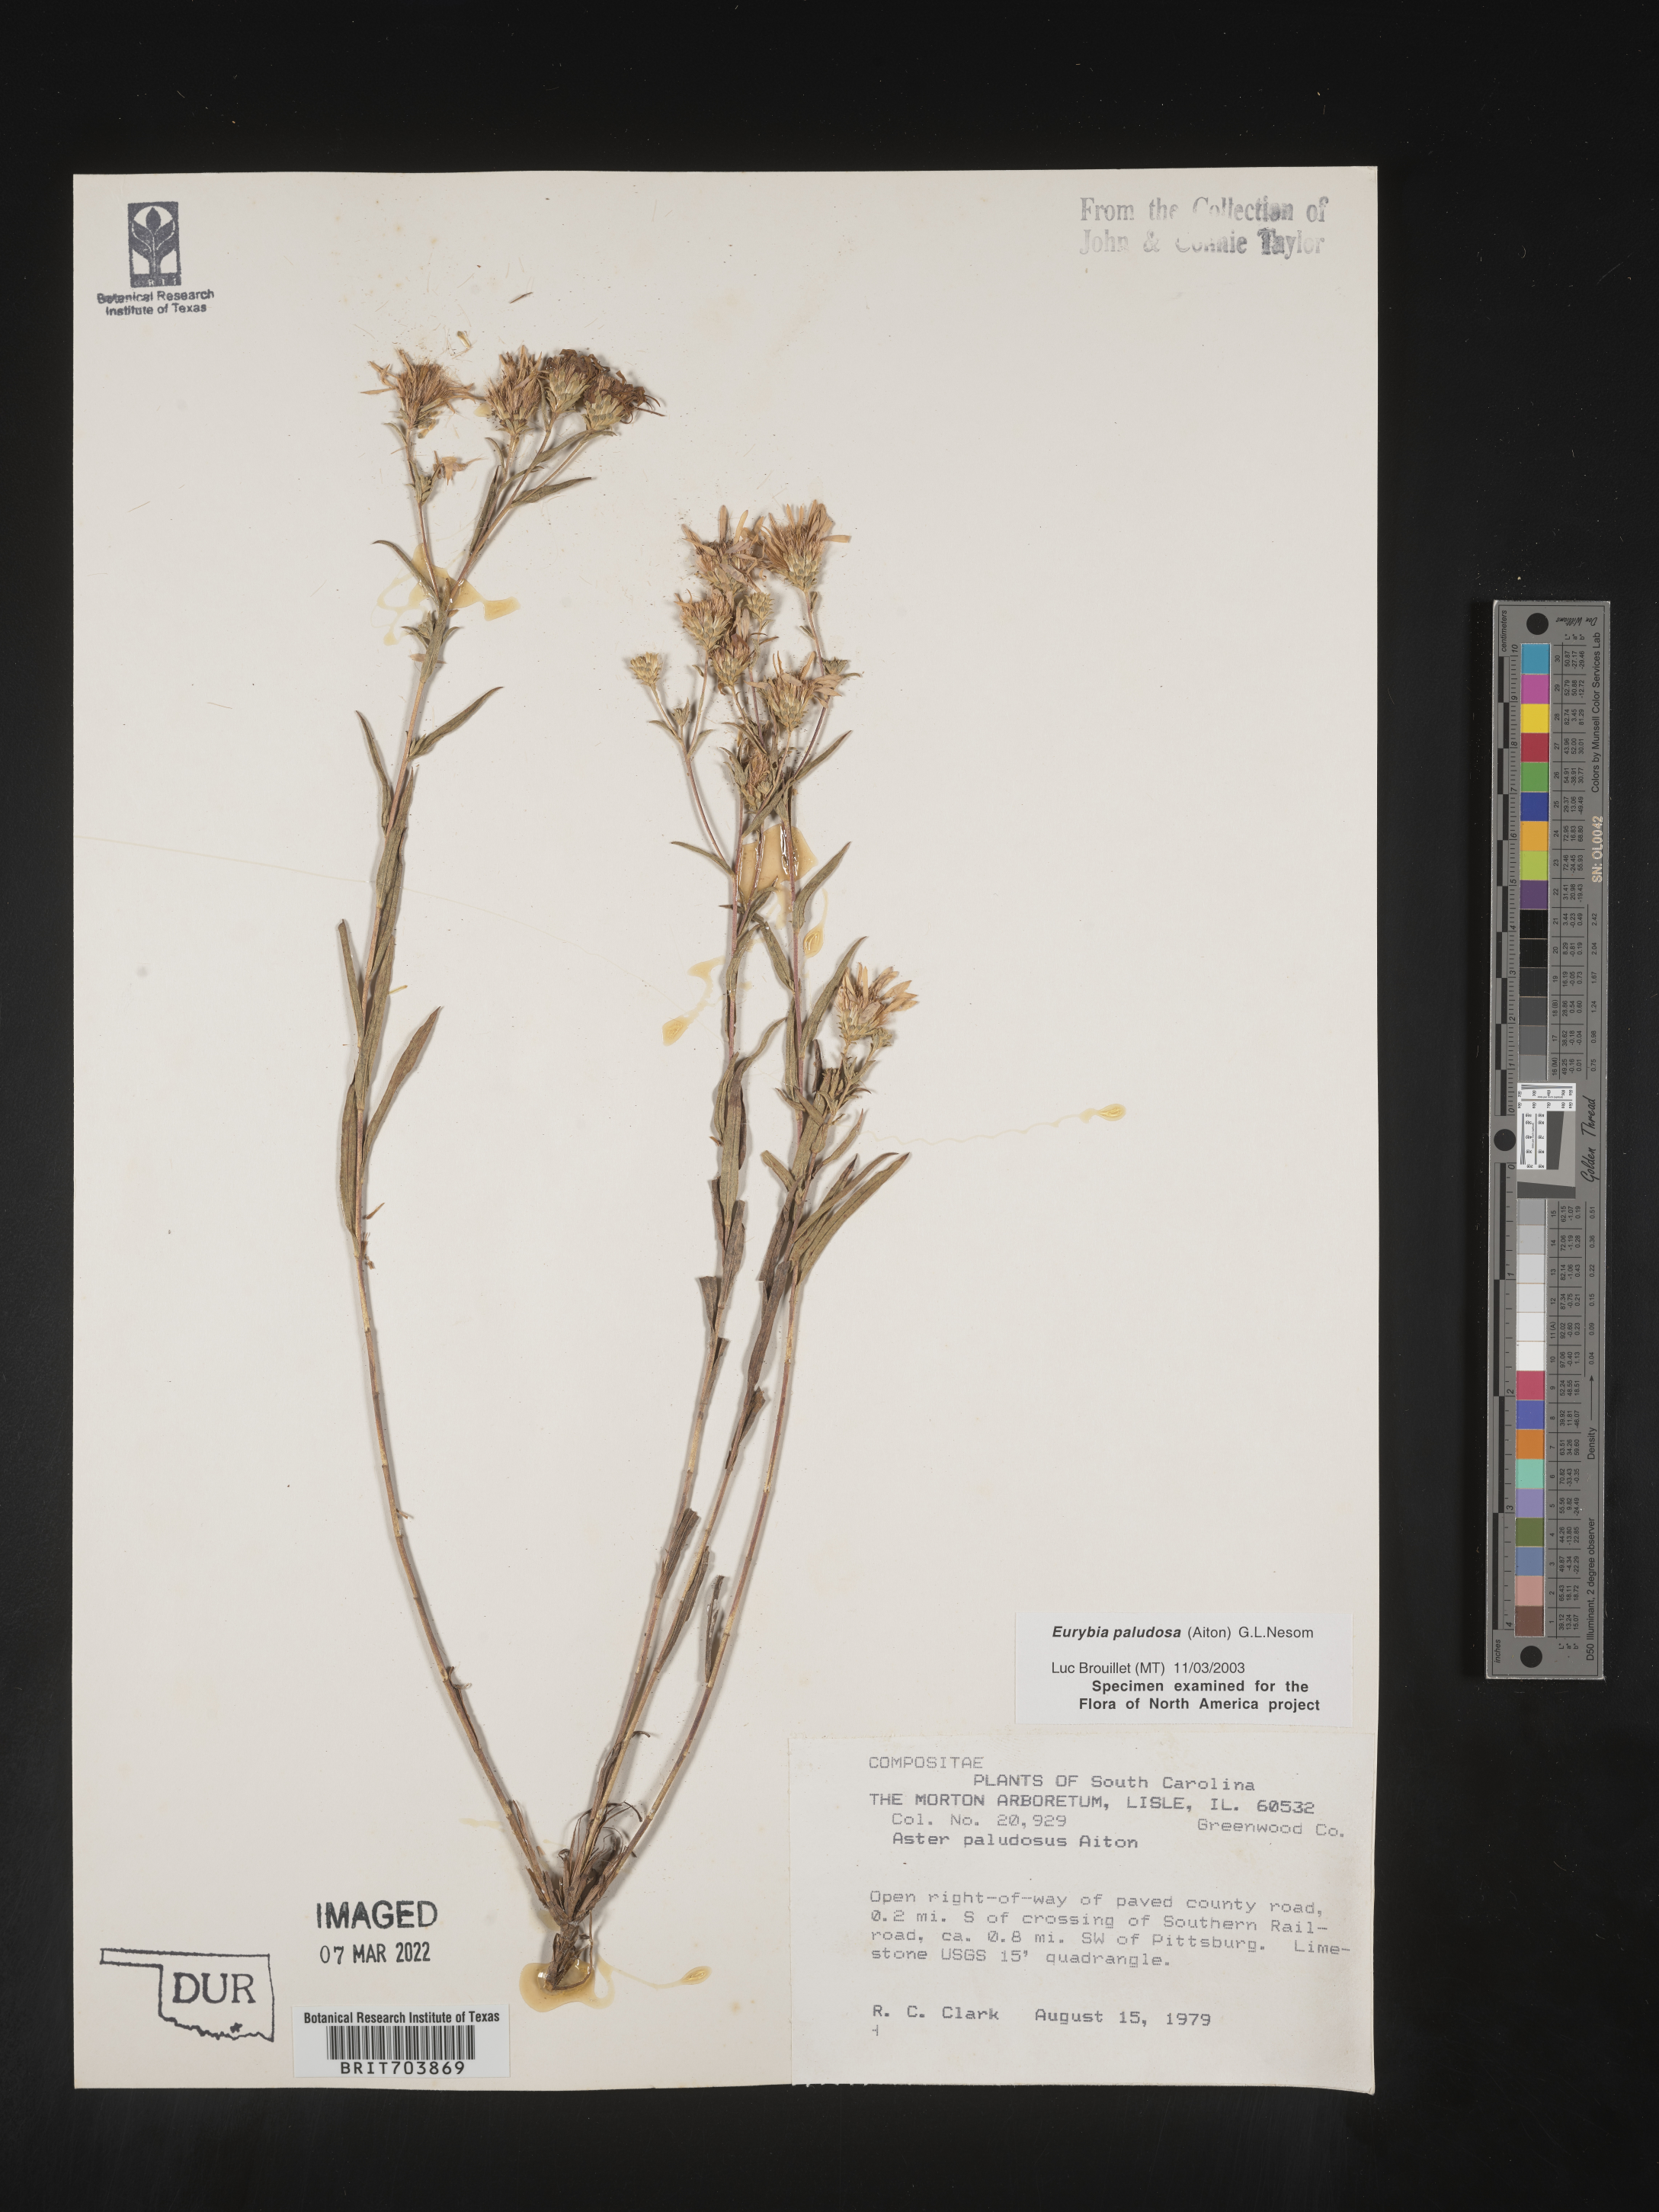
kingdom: Plantae
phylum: Tracheophyta
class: Magnoliopsida
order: Asterales
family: Asteraceae
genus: Eurybia
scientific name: Eurybia paludosa
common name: Southern swamp aster
